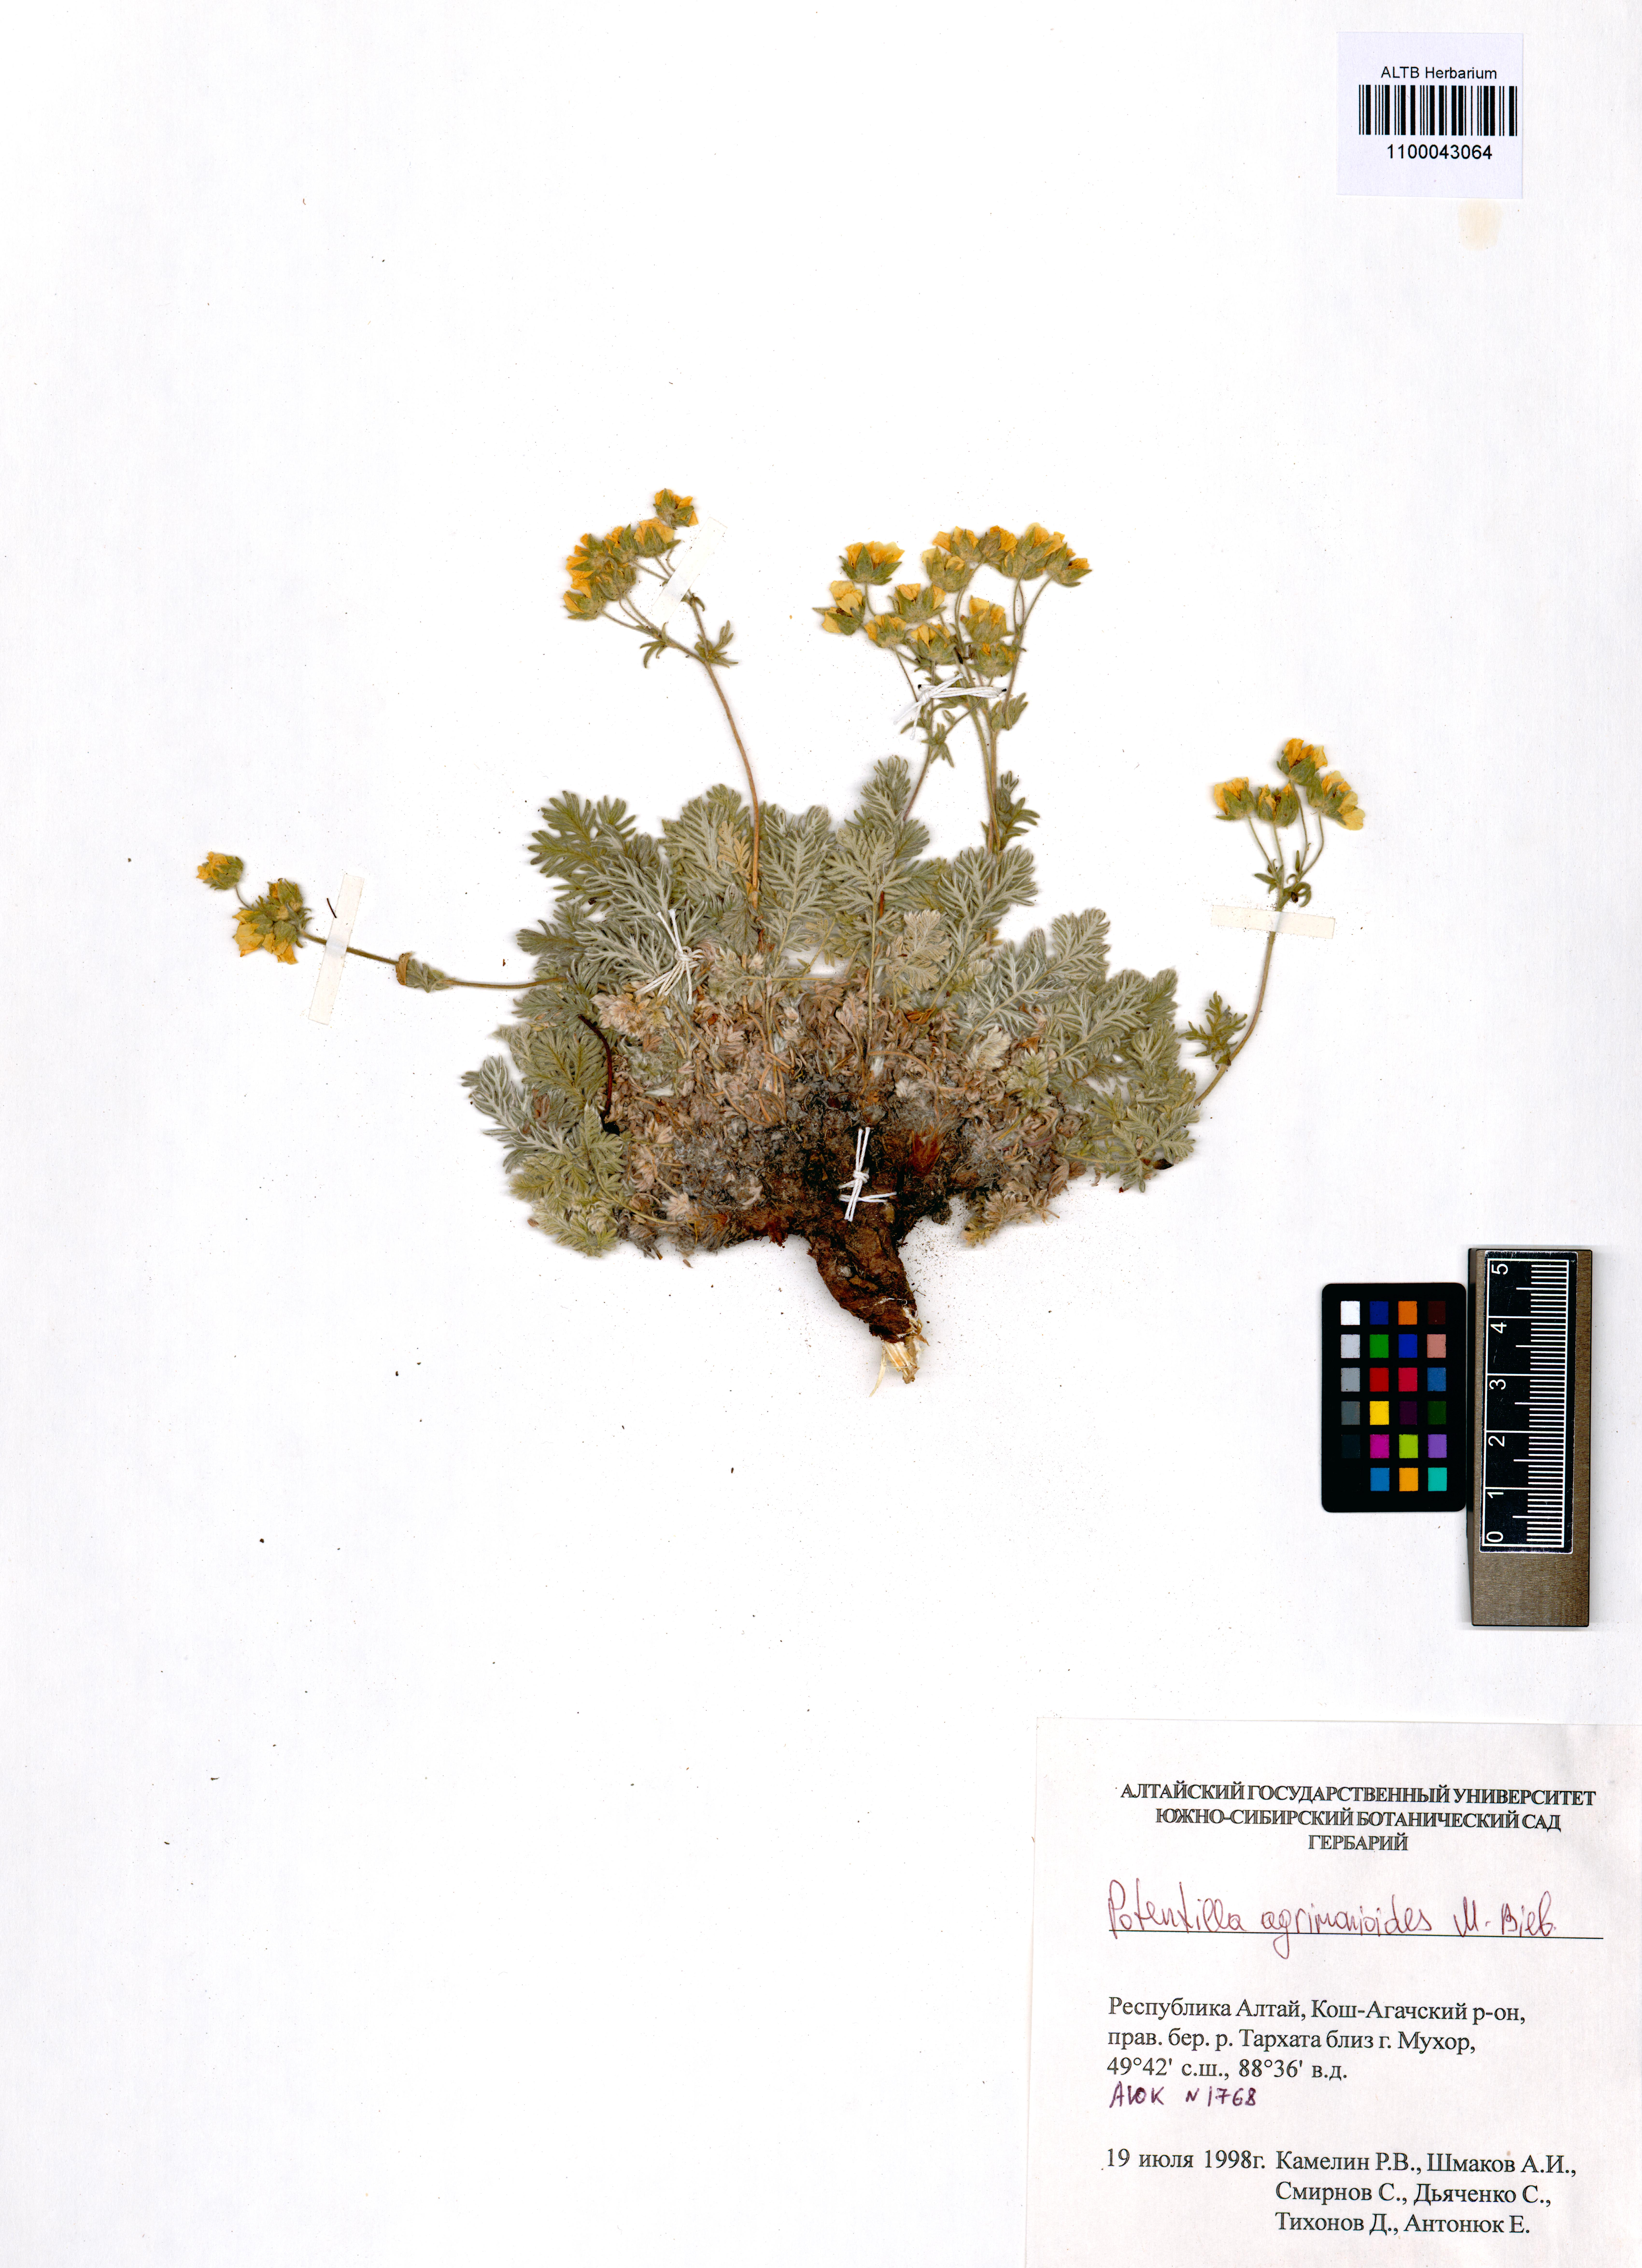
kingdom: Plantae
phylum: Tracheophyta
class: Magnoliopsida
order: Rosales
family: Rosaceae
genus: Potentilla
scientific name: Potentilla agrimonioides
